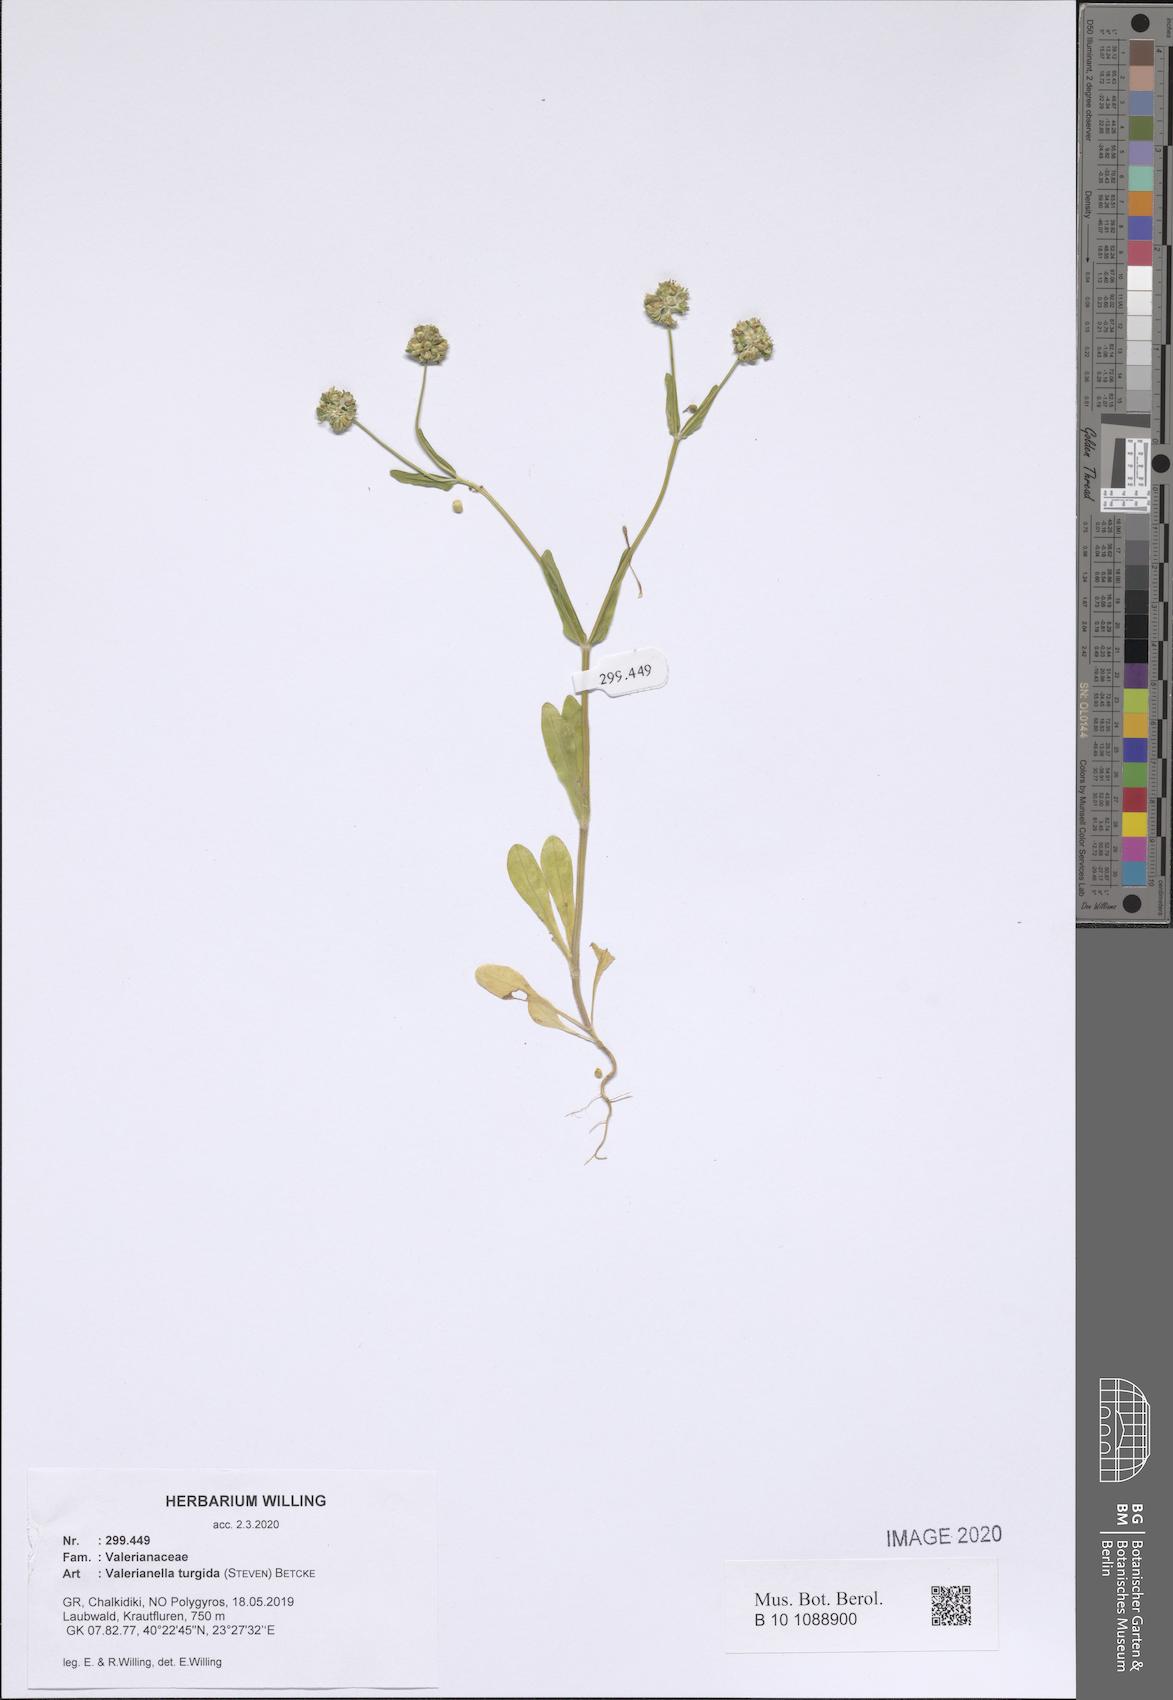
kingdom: Plantae
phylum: Tracheophyta
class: Magnoliopsida
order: Dipsacales
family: Caprifoliaceae
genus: Valerianella
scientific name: Valerianella turgida
